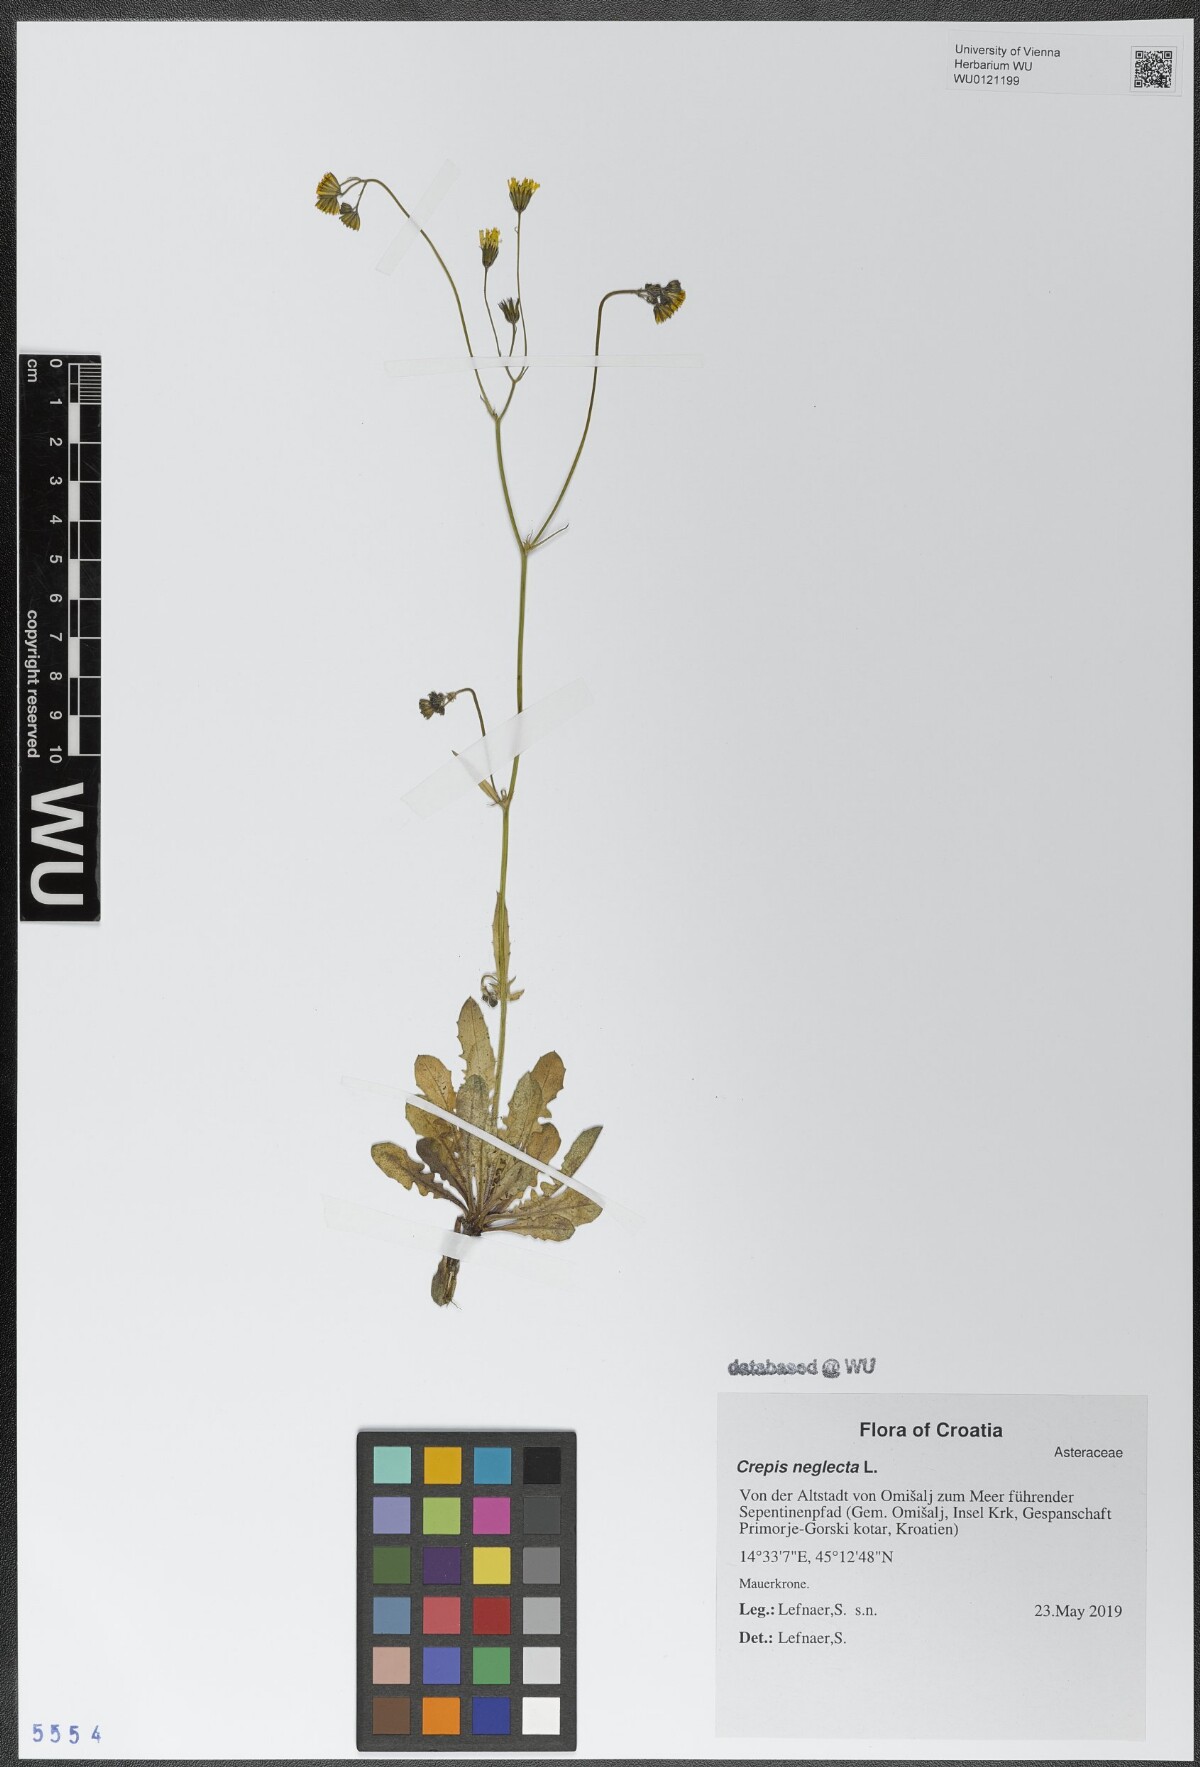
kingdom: Plantae
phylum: Tracheophyta
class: Magnoliopsida
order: Asterales
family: Asteraceae
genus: Crepis
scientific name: Crepis neglecta
